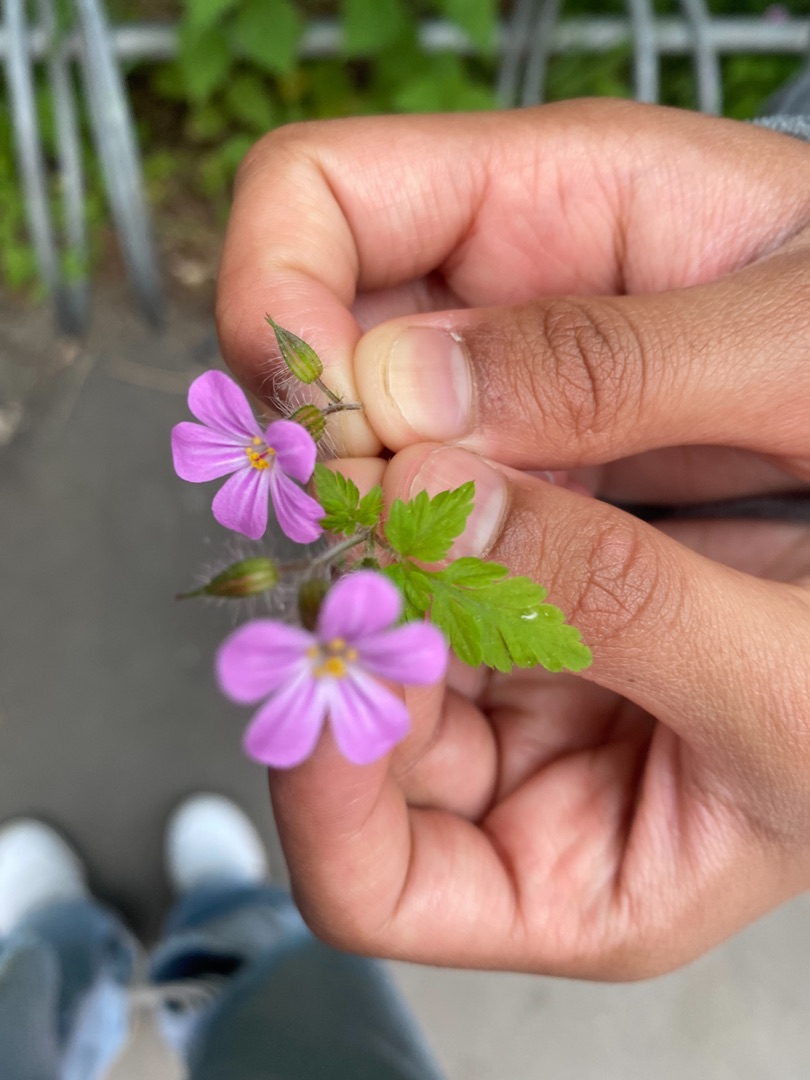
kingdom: Plantae
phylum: Tracheophyta
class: Magnoliopsida
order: Geraniales
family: Geraniaceae
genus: Geranium
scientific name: Geranium robertianum
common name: Stinkende storkenæb
